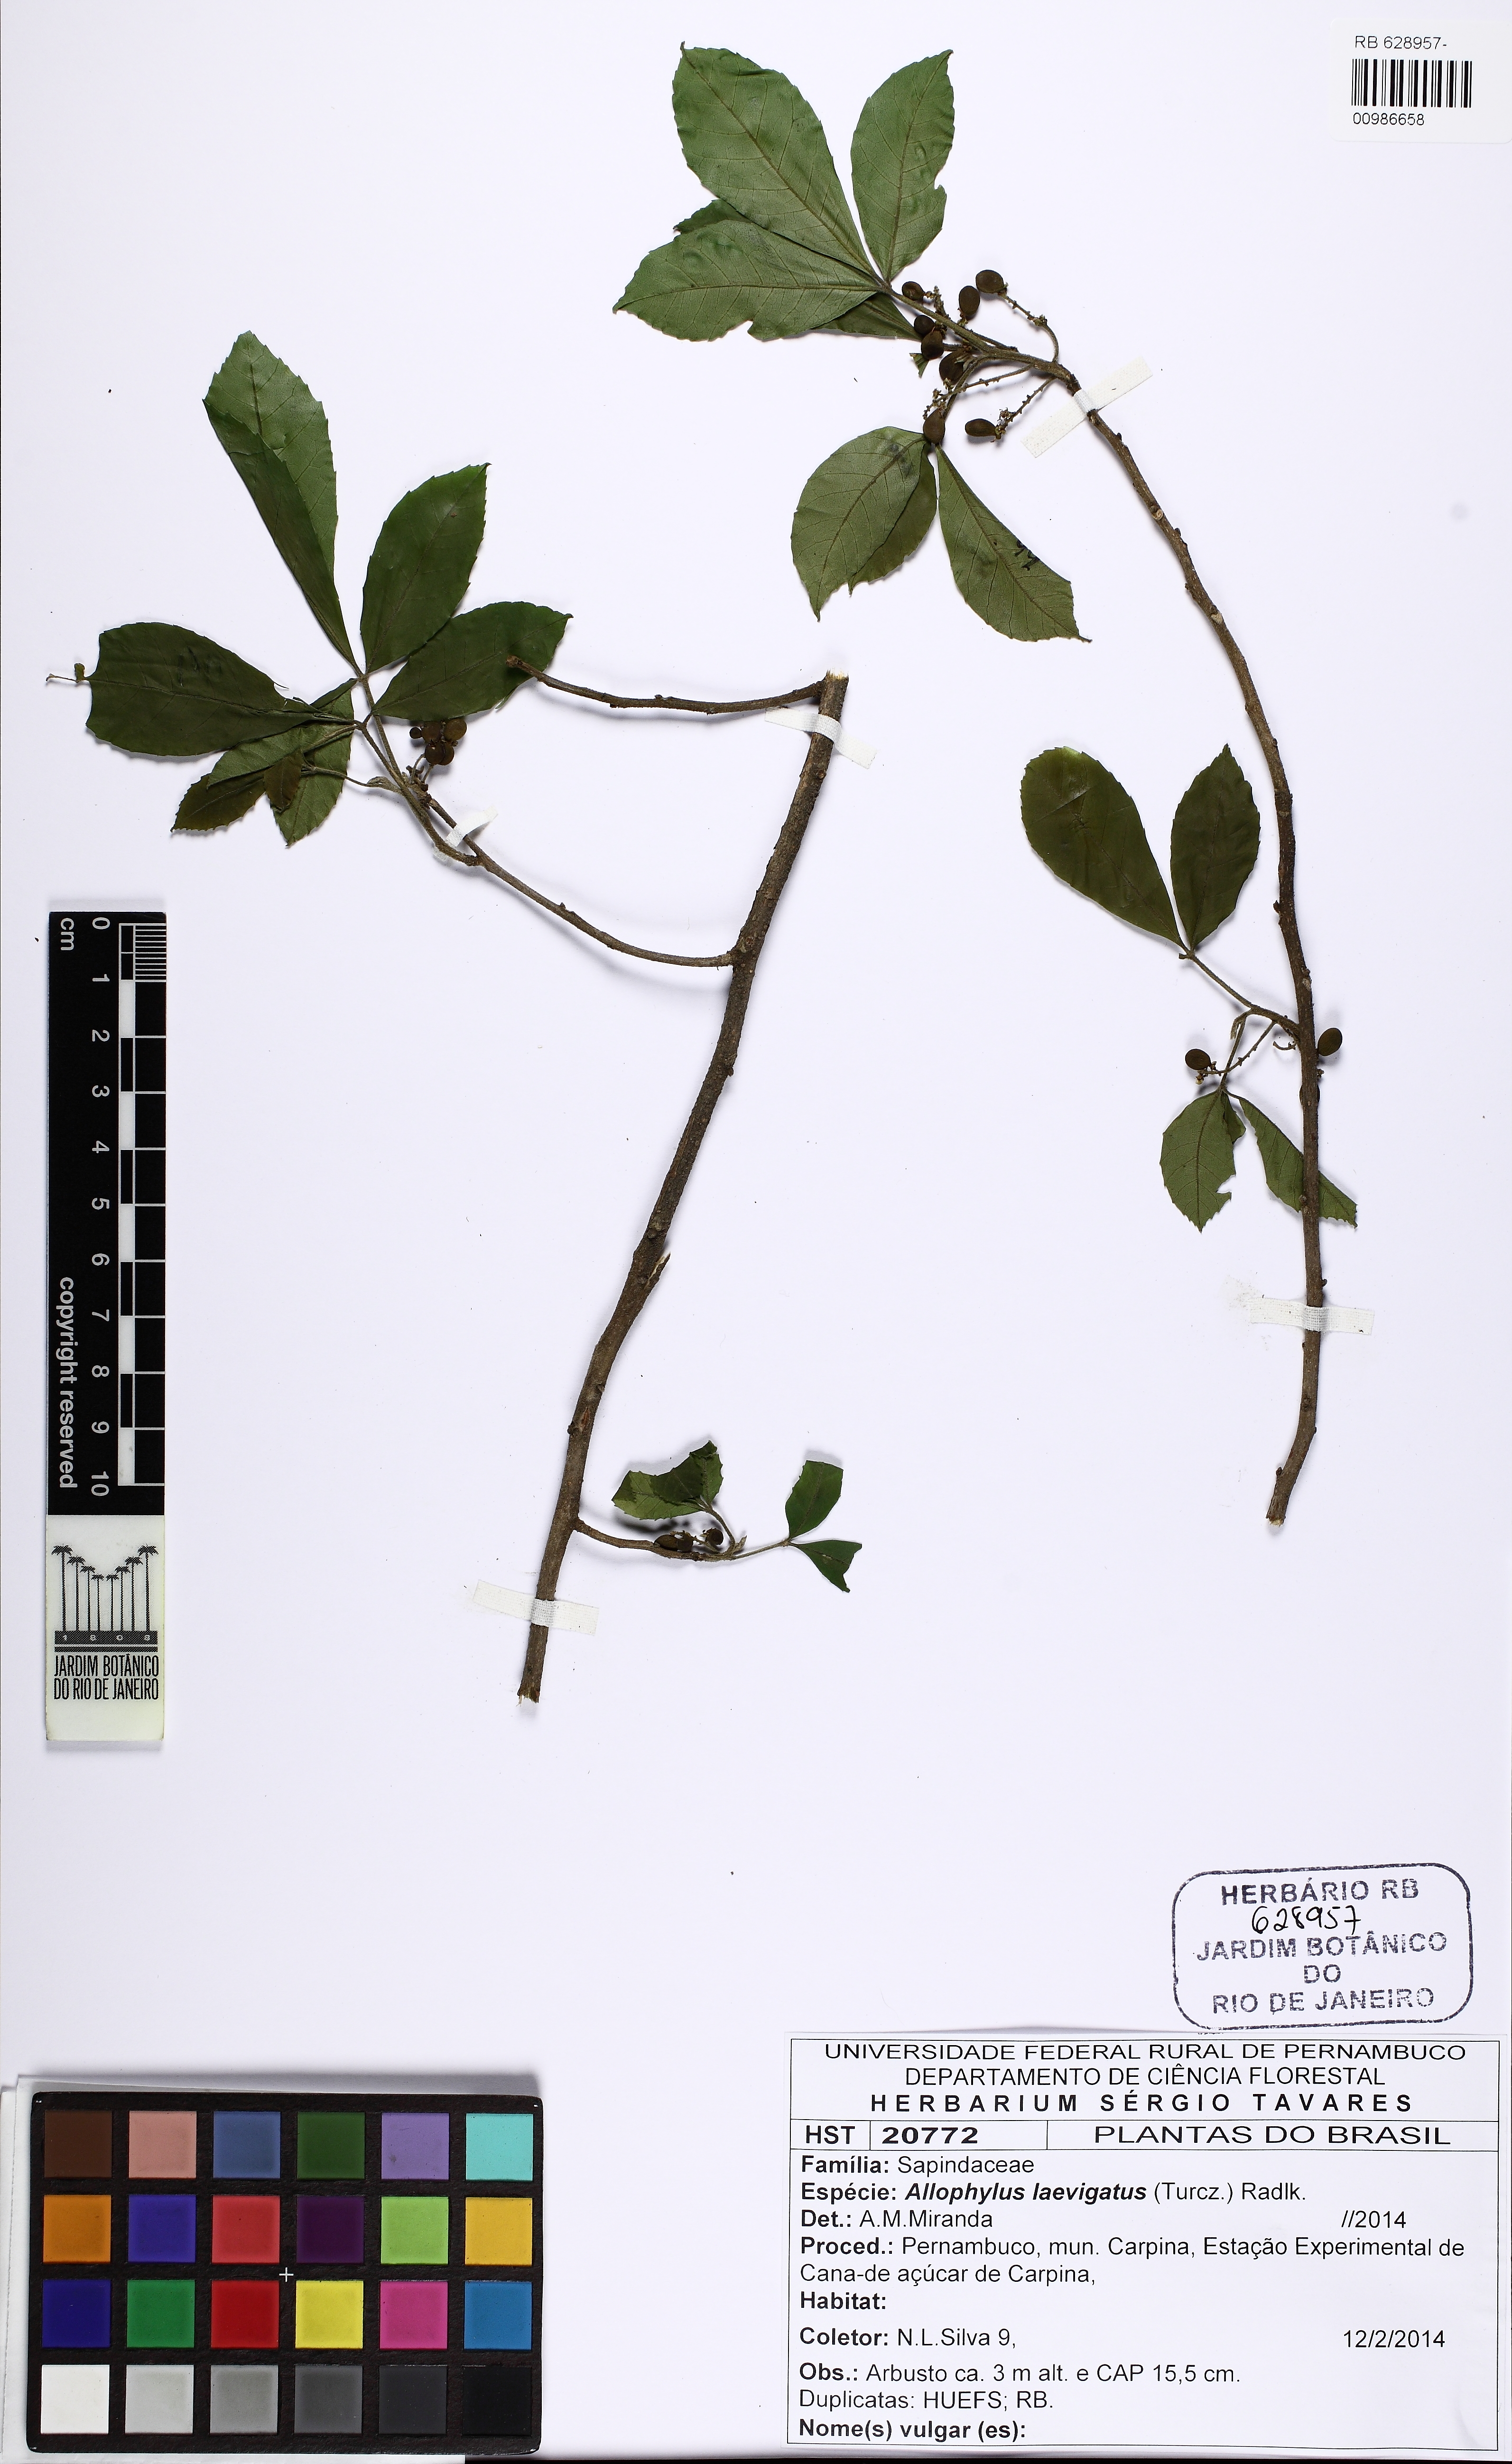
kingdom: Plantae
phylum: Tracheophyta
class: Magnoliopsida
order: Sapindales
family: Sapindaceae
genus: Allophylus
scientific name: Allophylus puberulus
